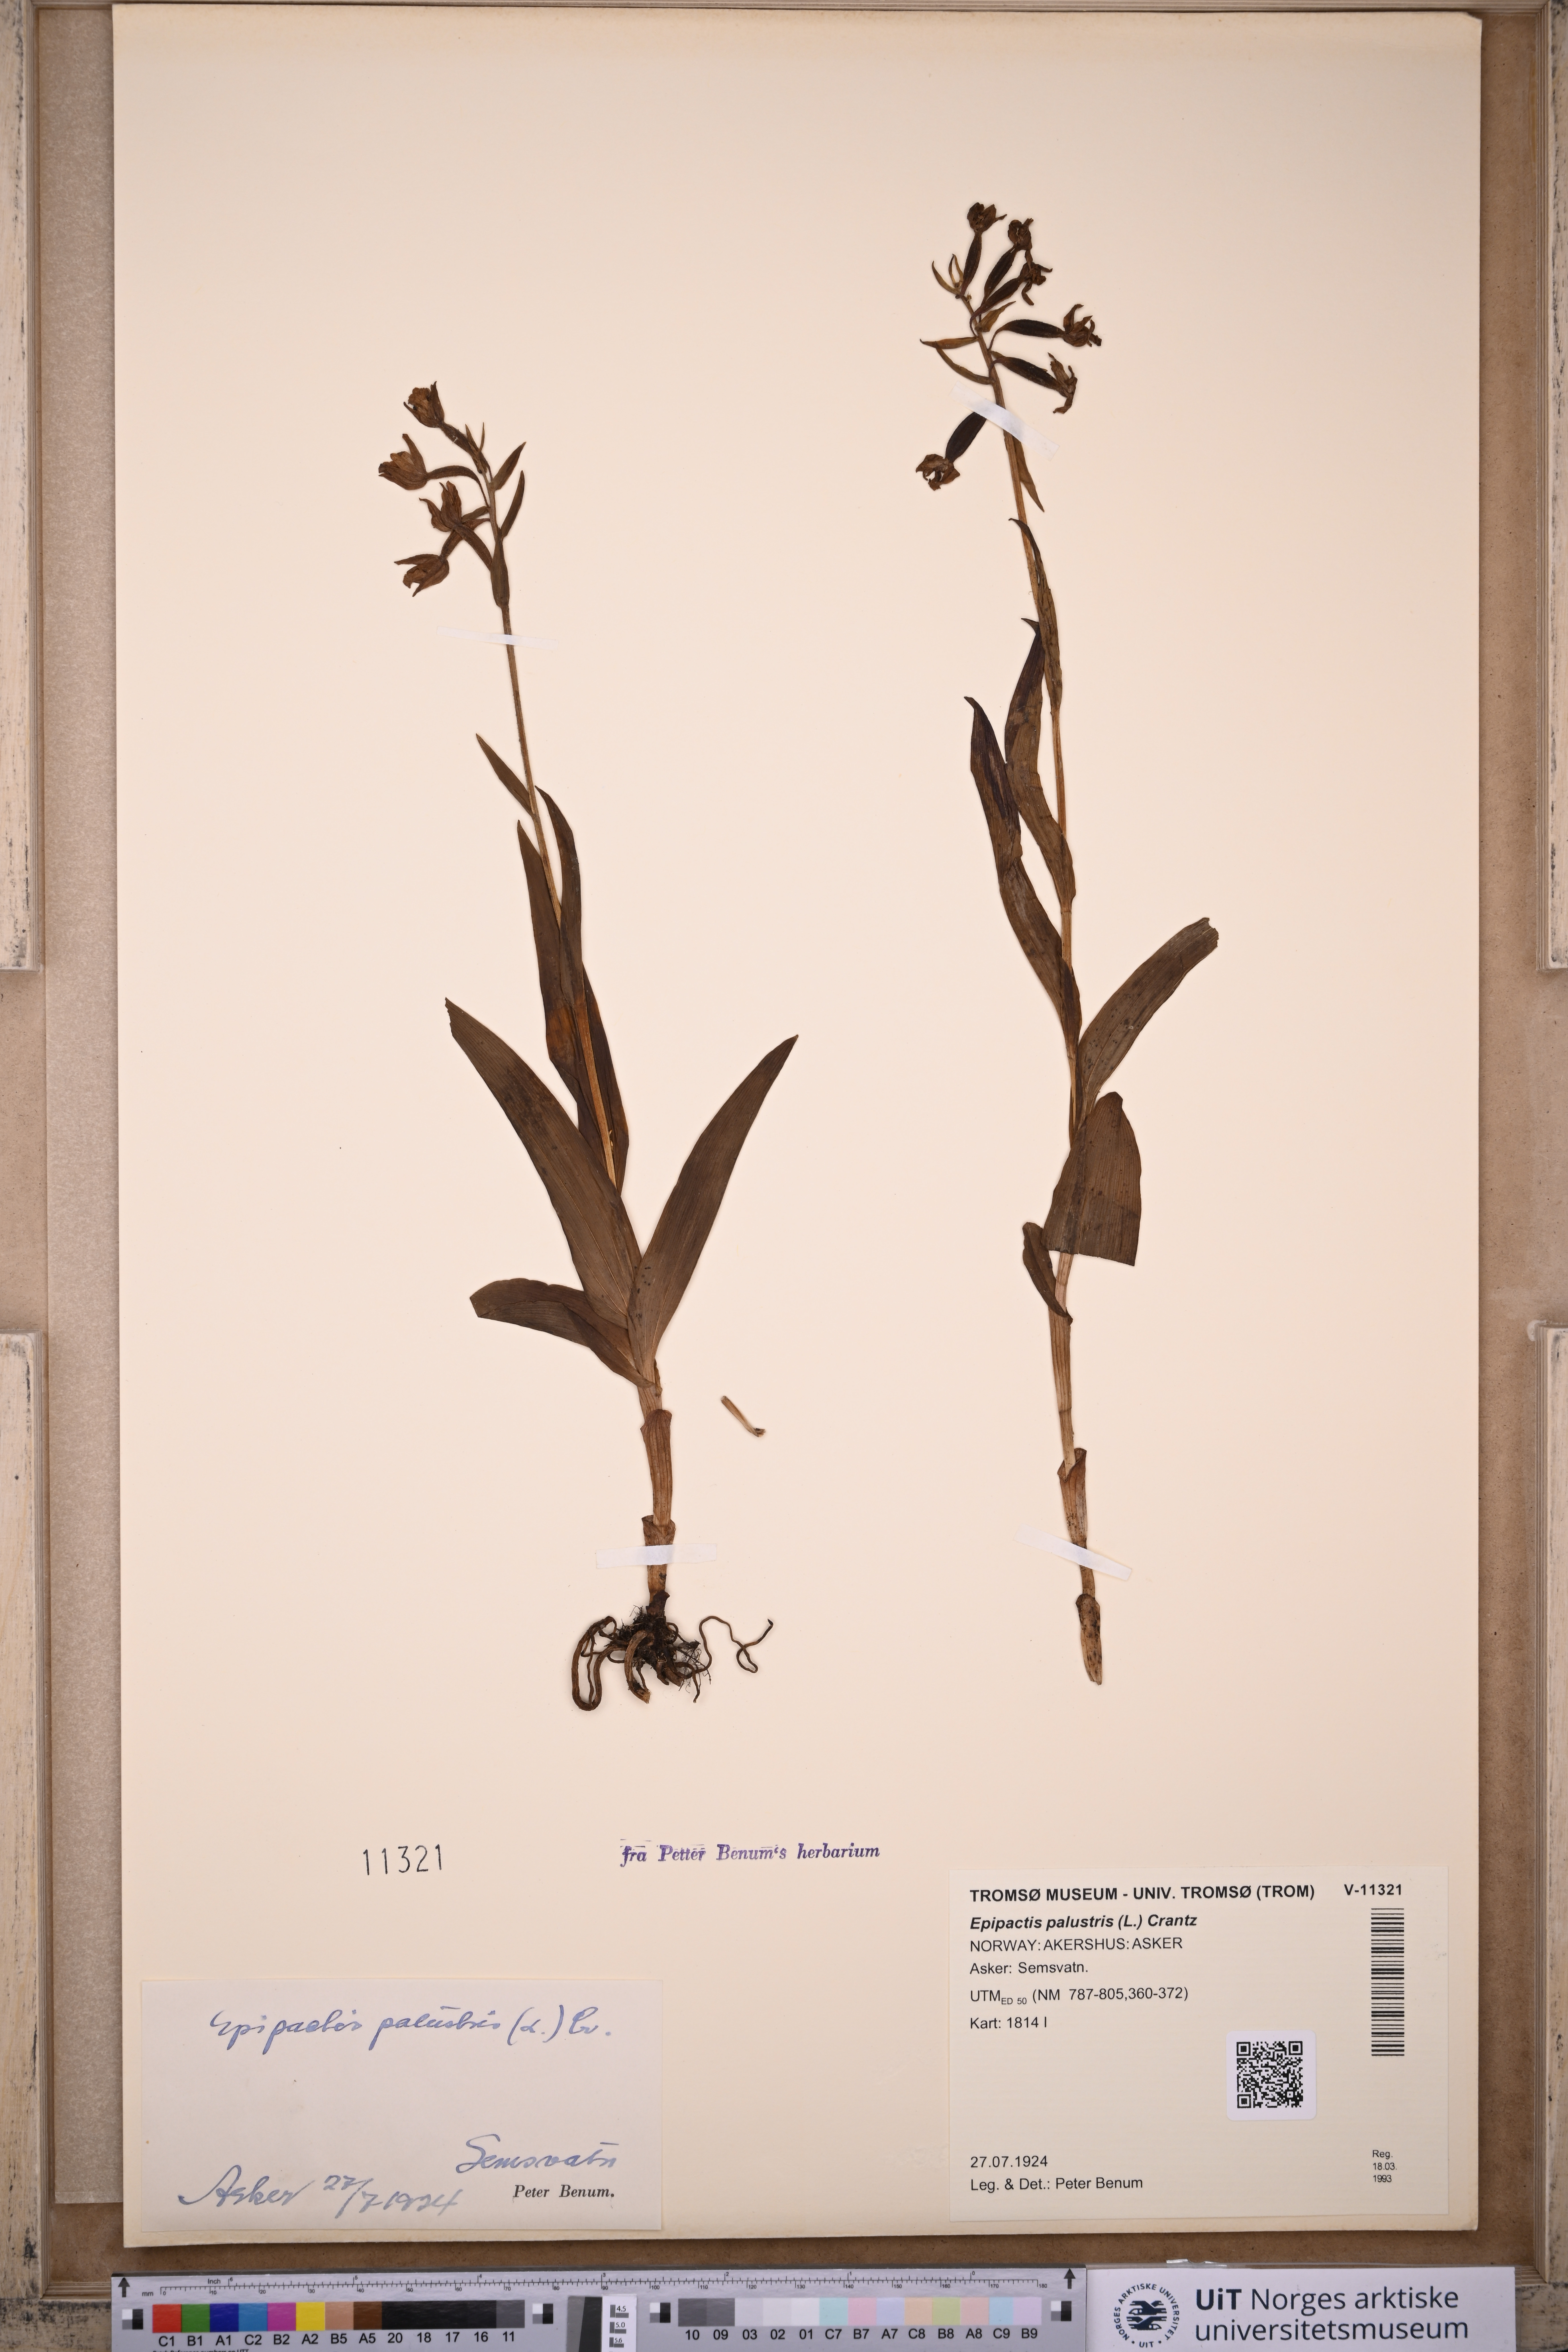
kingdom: Plantae
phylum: Tracheophyta
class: Liliopsida
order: Asparagales
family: Orchidaceae
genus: Epipactis
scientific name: Epipactis palustris
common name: Marsh helleborine
